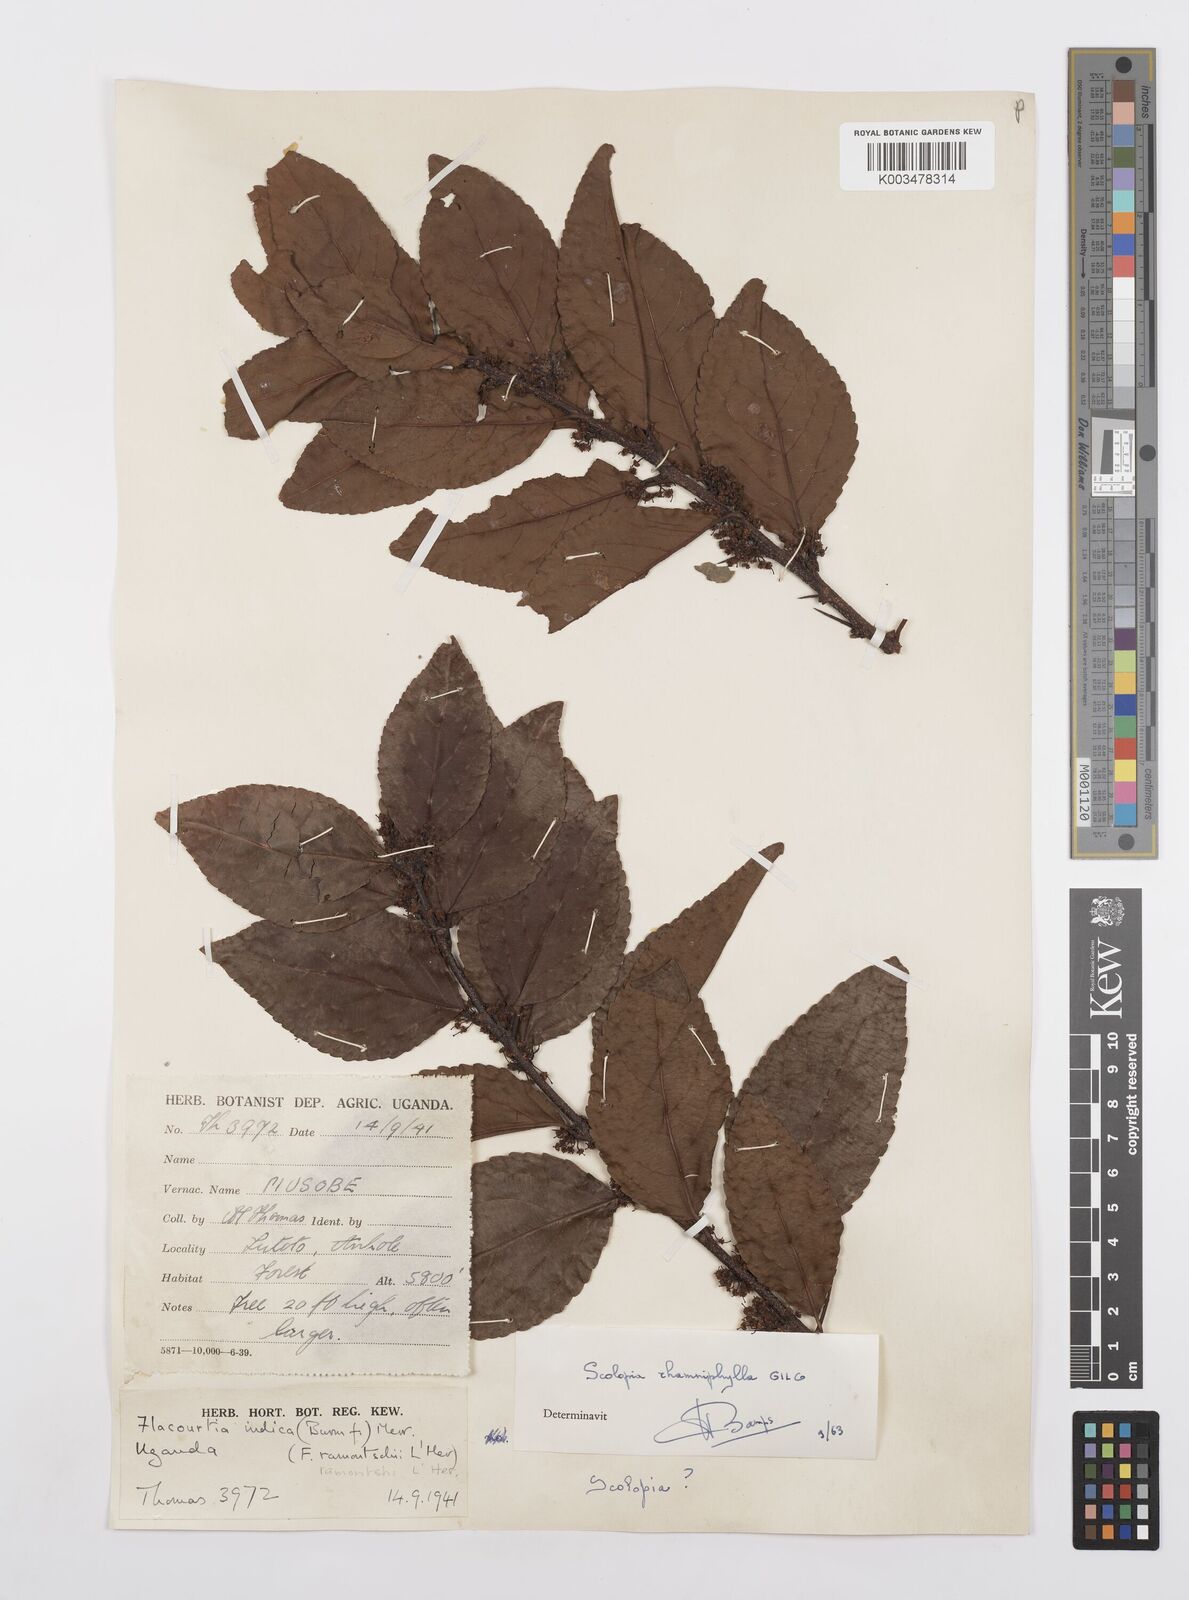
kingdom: Plantae
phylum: Tracheophyta
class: Magnoliopsida
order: Malpighiales
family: Salicaceae
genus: Scolopia
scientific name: Scolopia rhamniphylla
